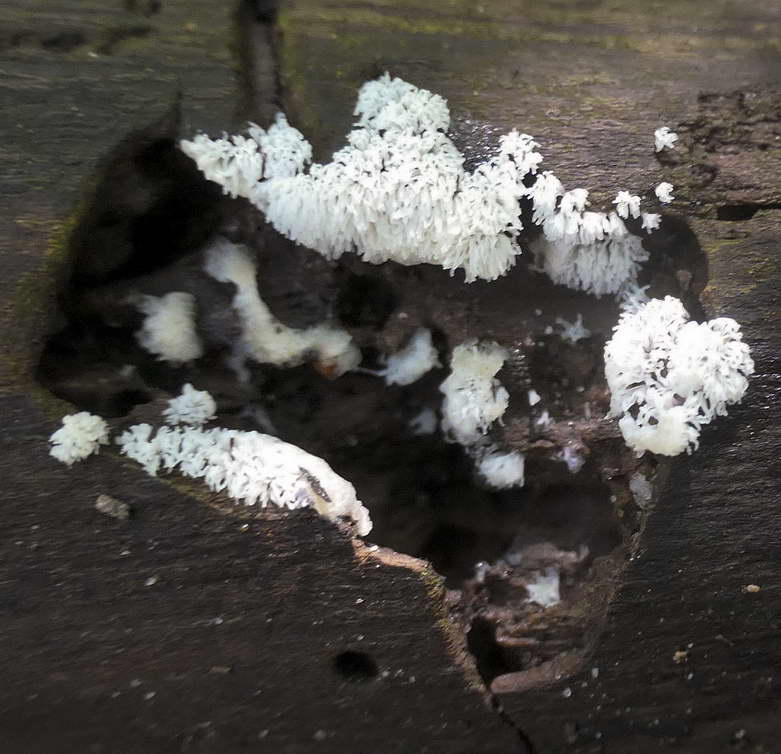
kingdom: Protozoa
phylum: Mycetozoa
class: Protosteliomycetes
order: Ceratiomyxales
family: Ceratiomyxaceae
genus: Ceratiomyxa
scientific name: Ceratiomyxa fruticulosa
